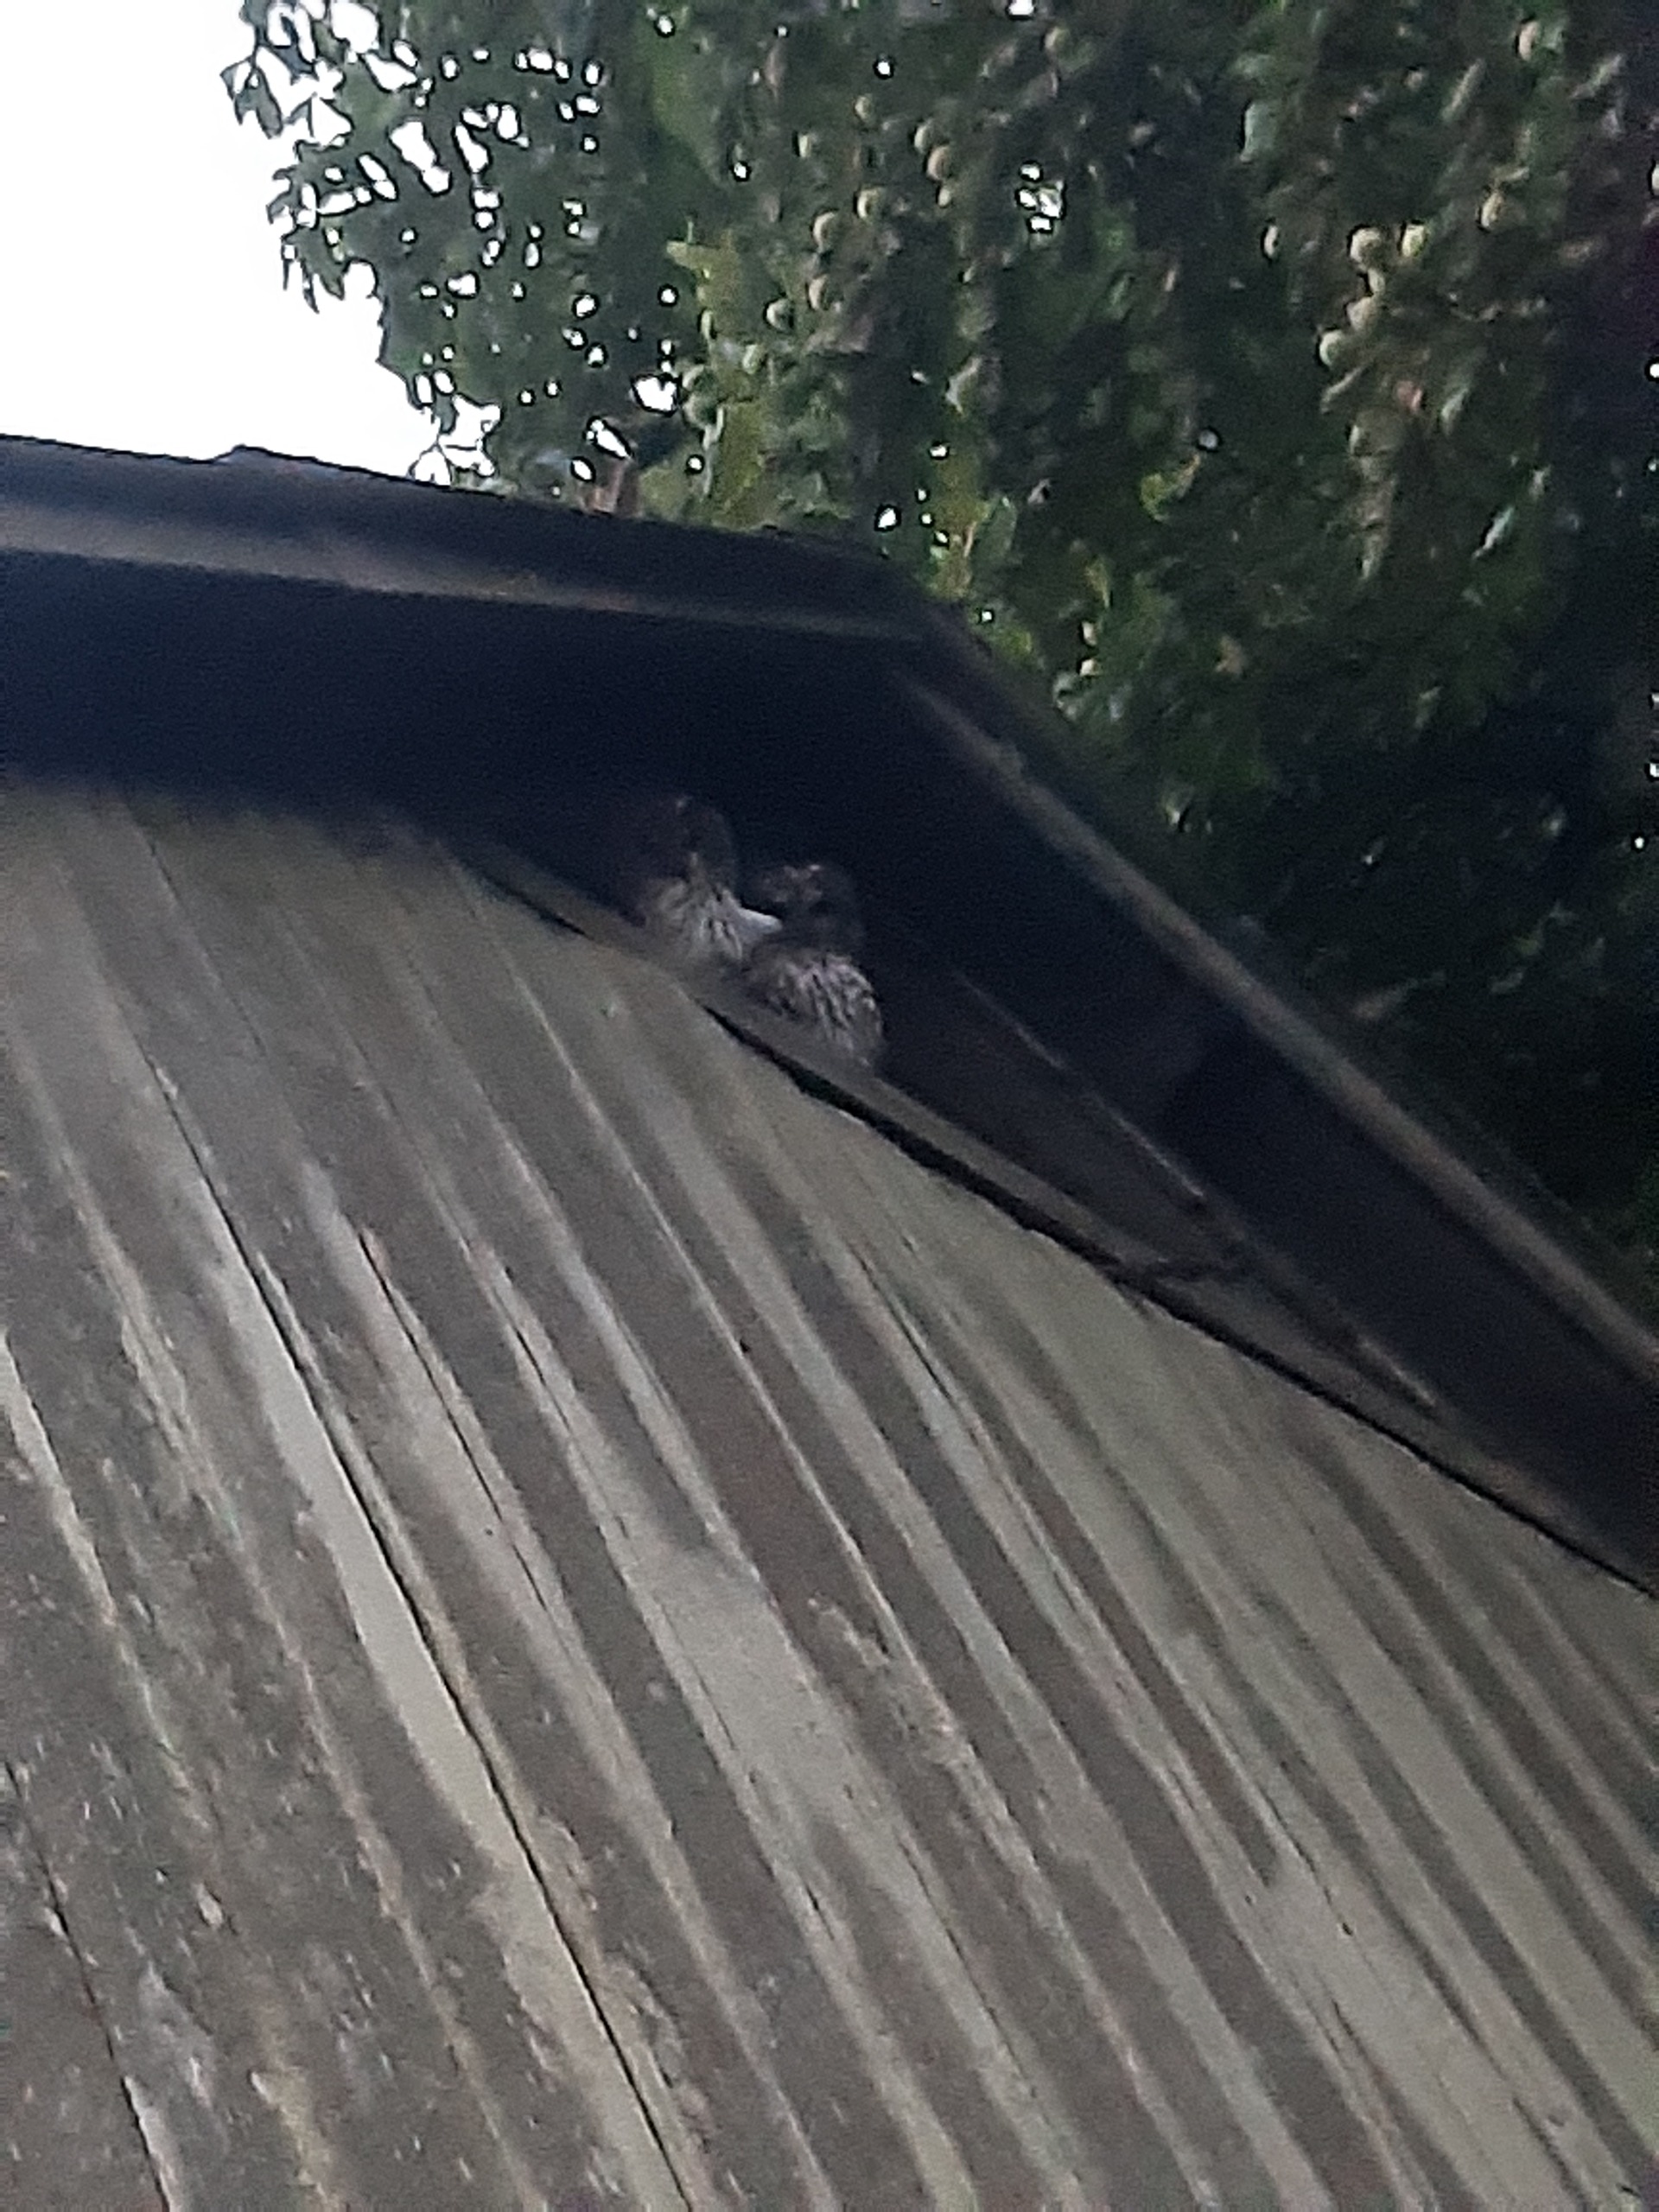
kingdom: Animalia
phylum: Chordata
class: Aves
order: Strigiformes
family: Strigidae
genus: Strix
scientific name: Strix aluco
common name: Natugle
